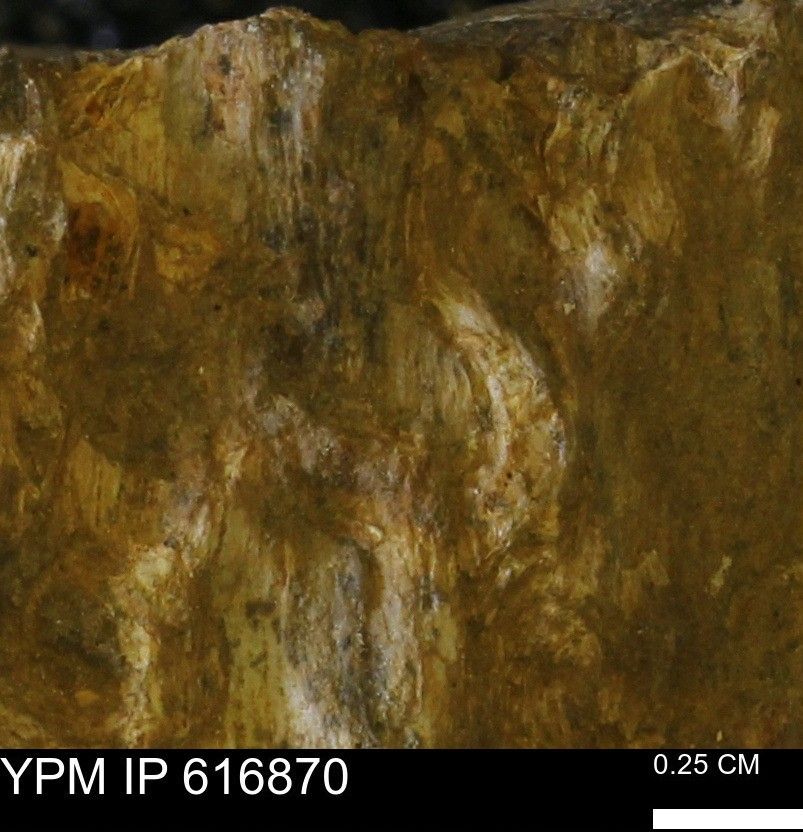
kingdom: Animalia
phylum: Mollusca
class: Bivalvia
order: Myida
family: Teredinidae
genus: Teredo
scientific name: Teredo
